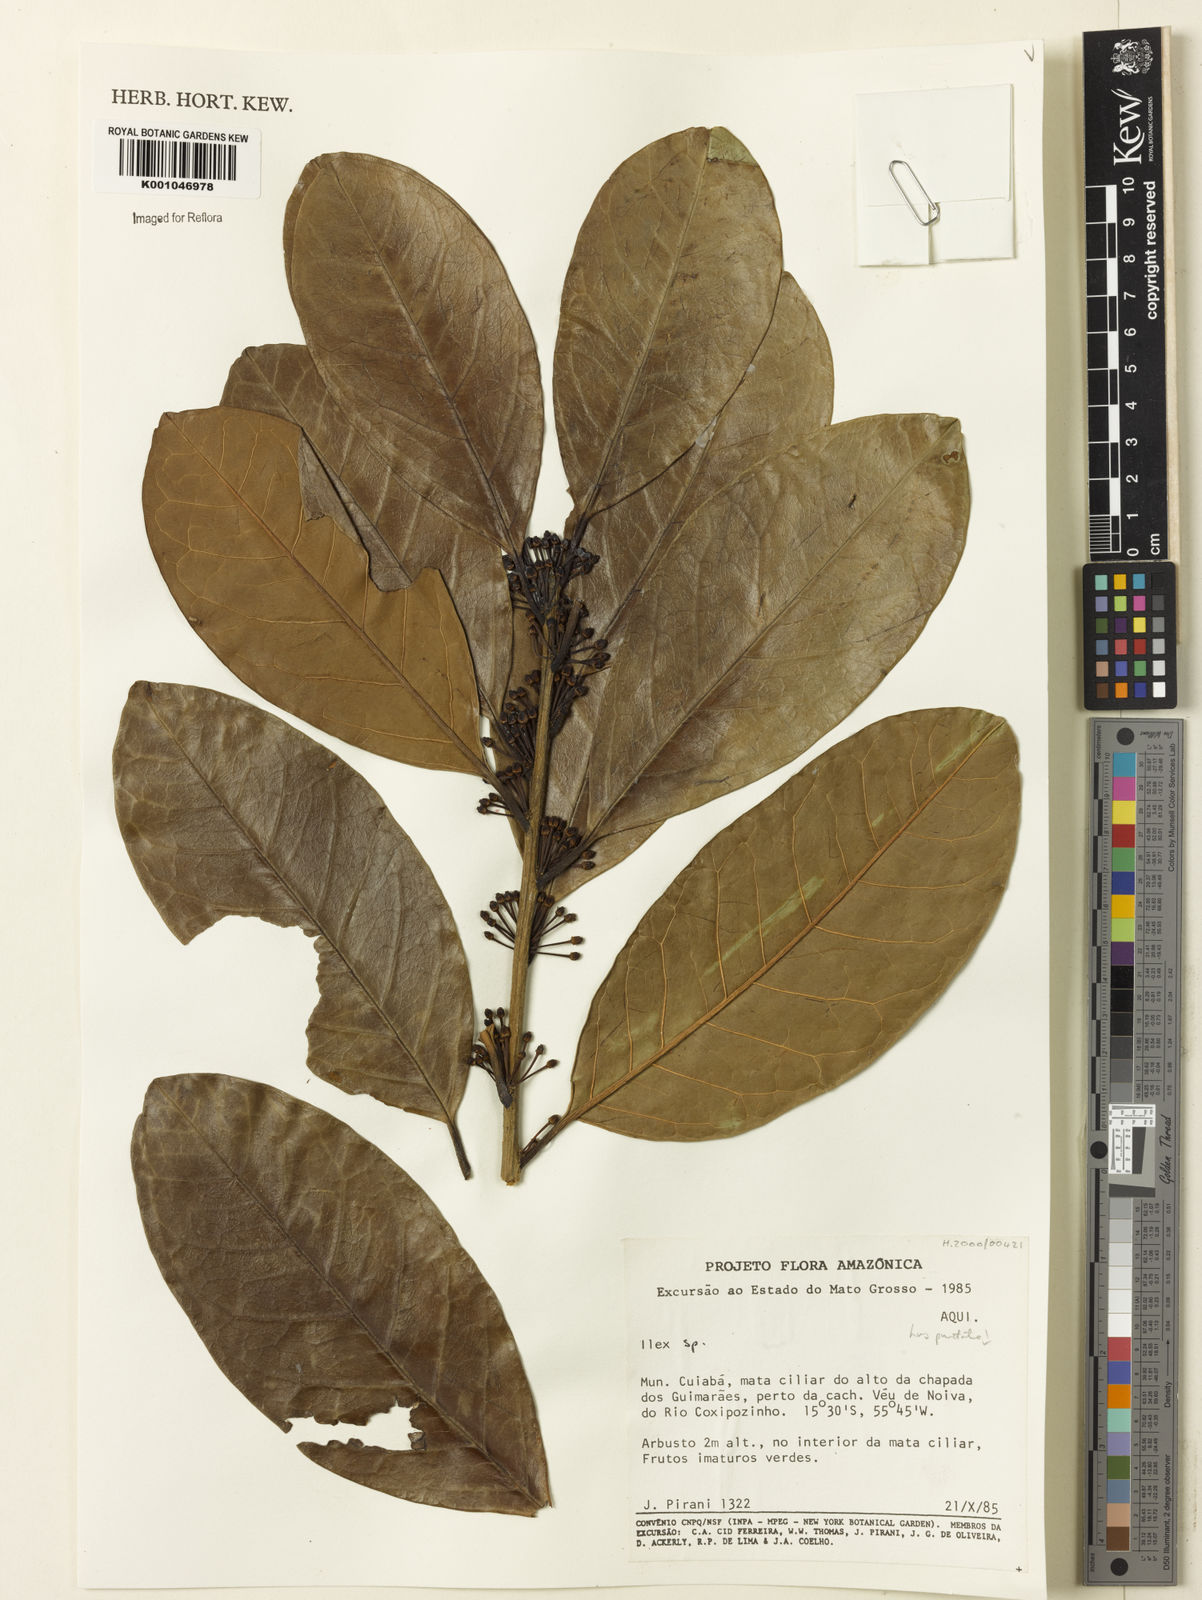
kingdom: Plantae
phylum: Tracheophyta
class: Magnoliopsida
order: Aquifoliales
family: Aquifoliaceae
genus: Ilex
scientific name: Ilex
